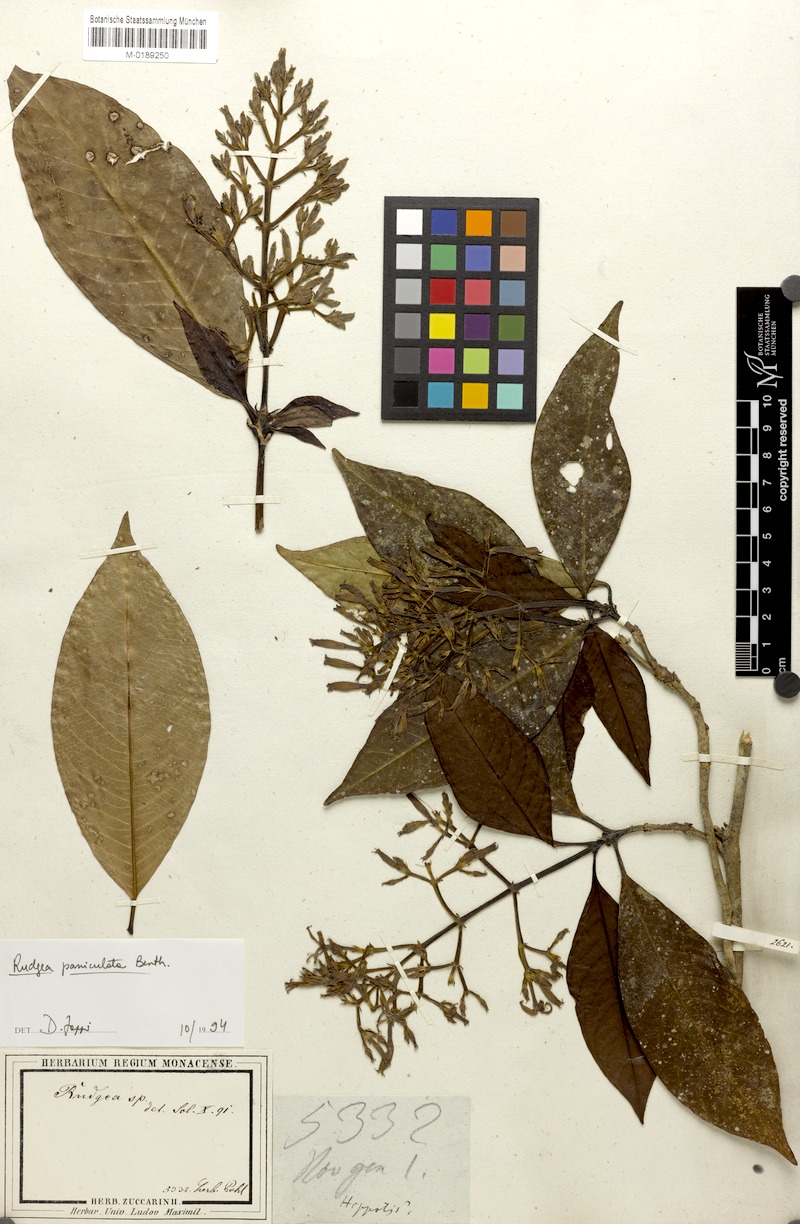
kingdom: Plantae
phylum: Tracheophyta
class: Magnoliopsida
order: Gentianales
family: Rubiaceae
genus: Rudgea
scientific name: Rudgea jasminoides
